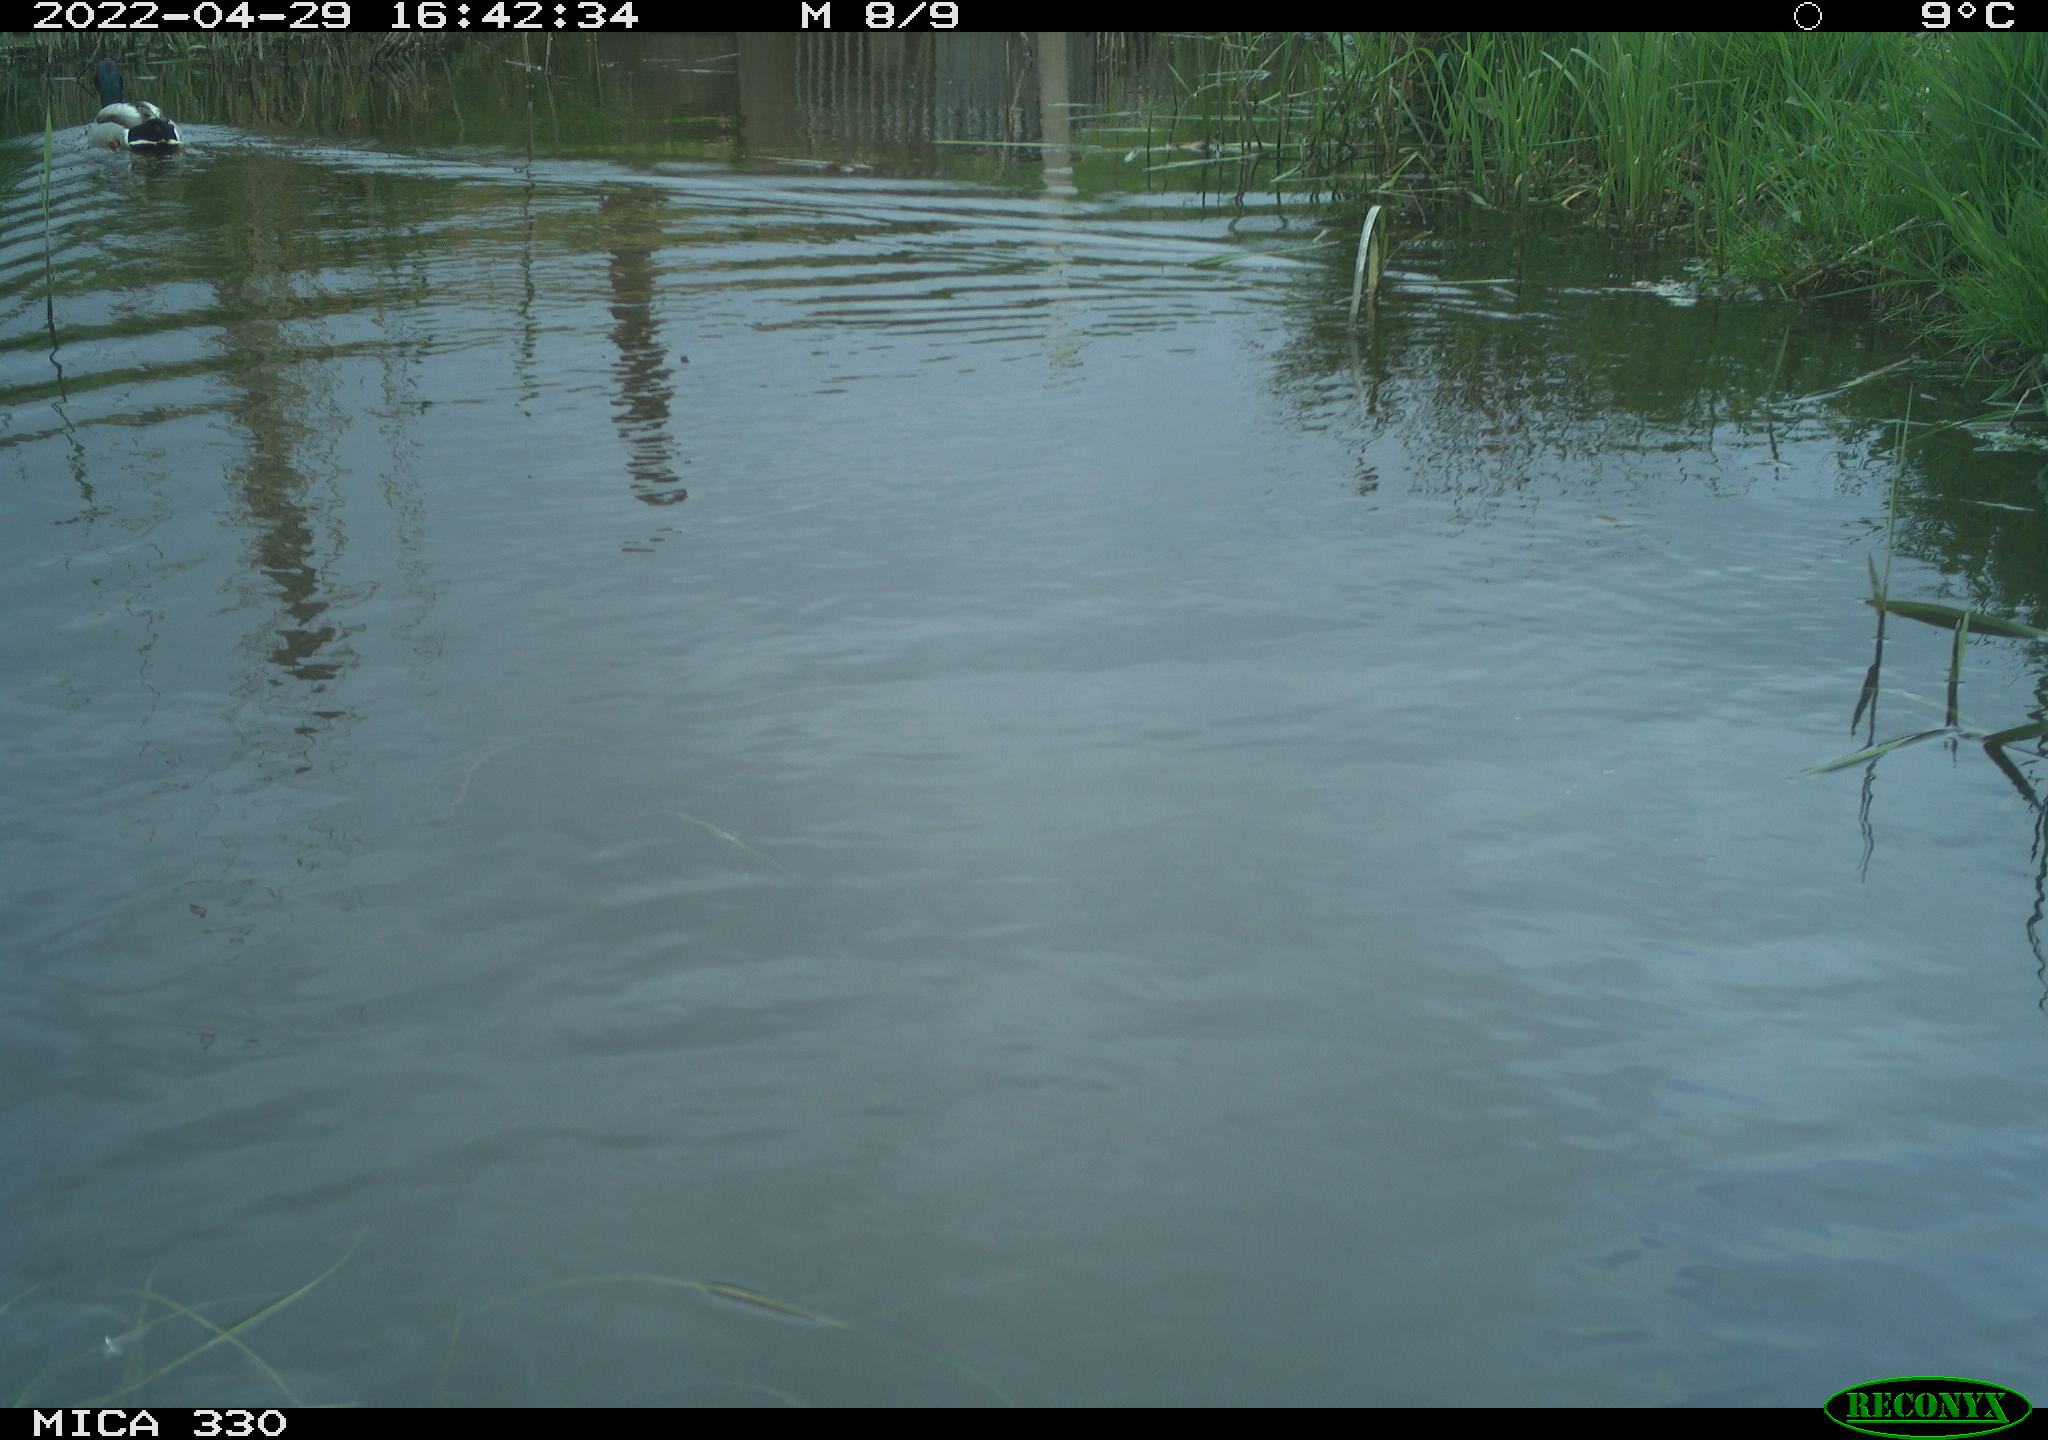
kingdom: Animalia
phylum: Chordata
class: Aves
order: Anseriformes
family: Anatidae
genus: Anas
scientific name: Anas platyrhynchos
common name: Mallard
